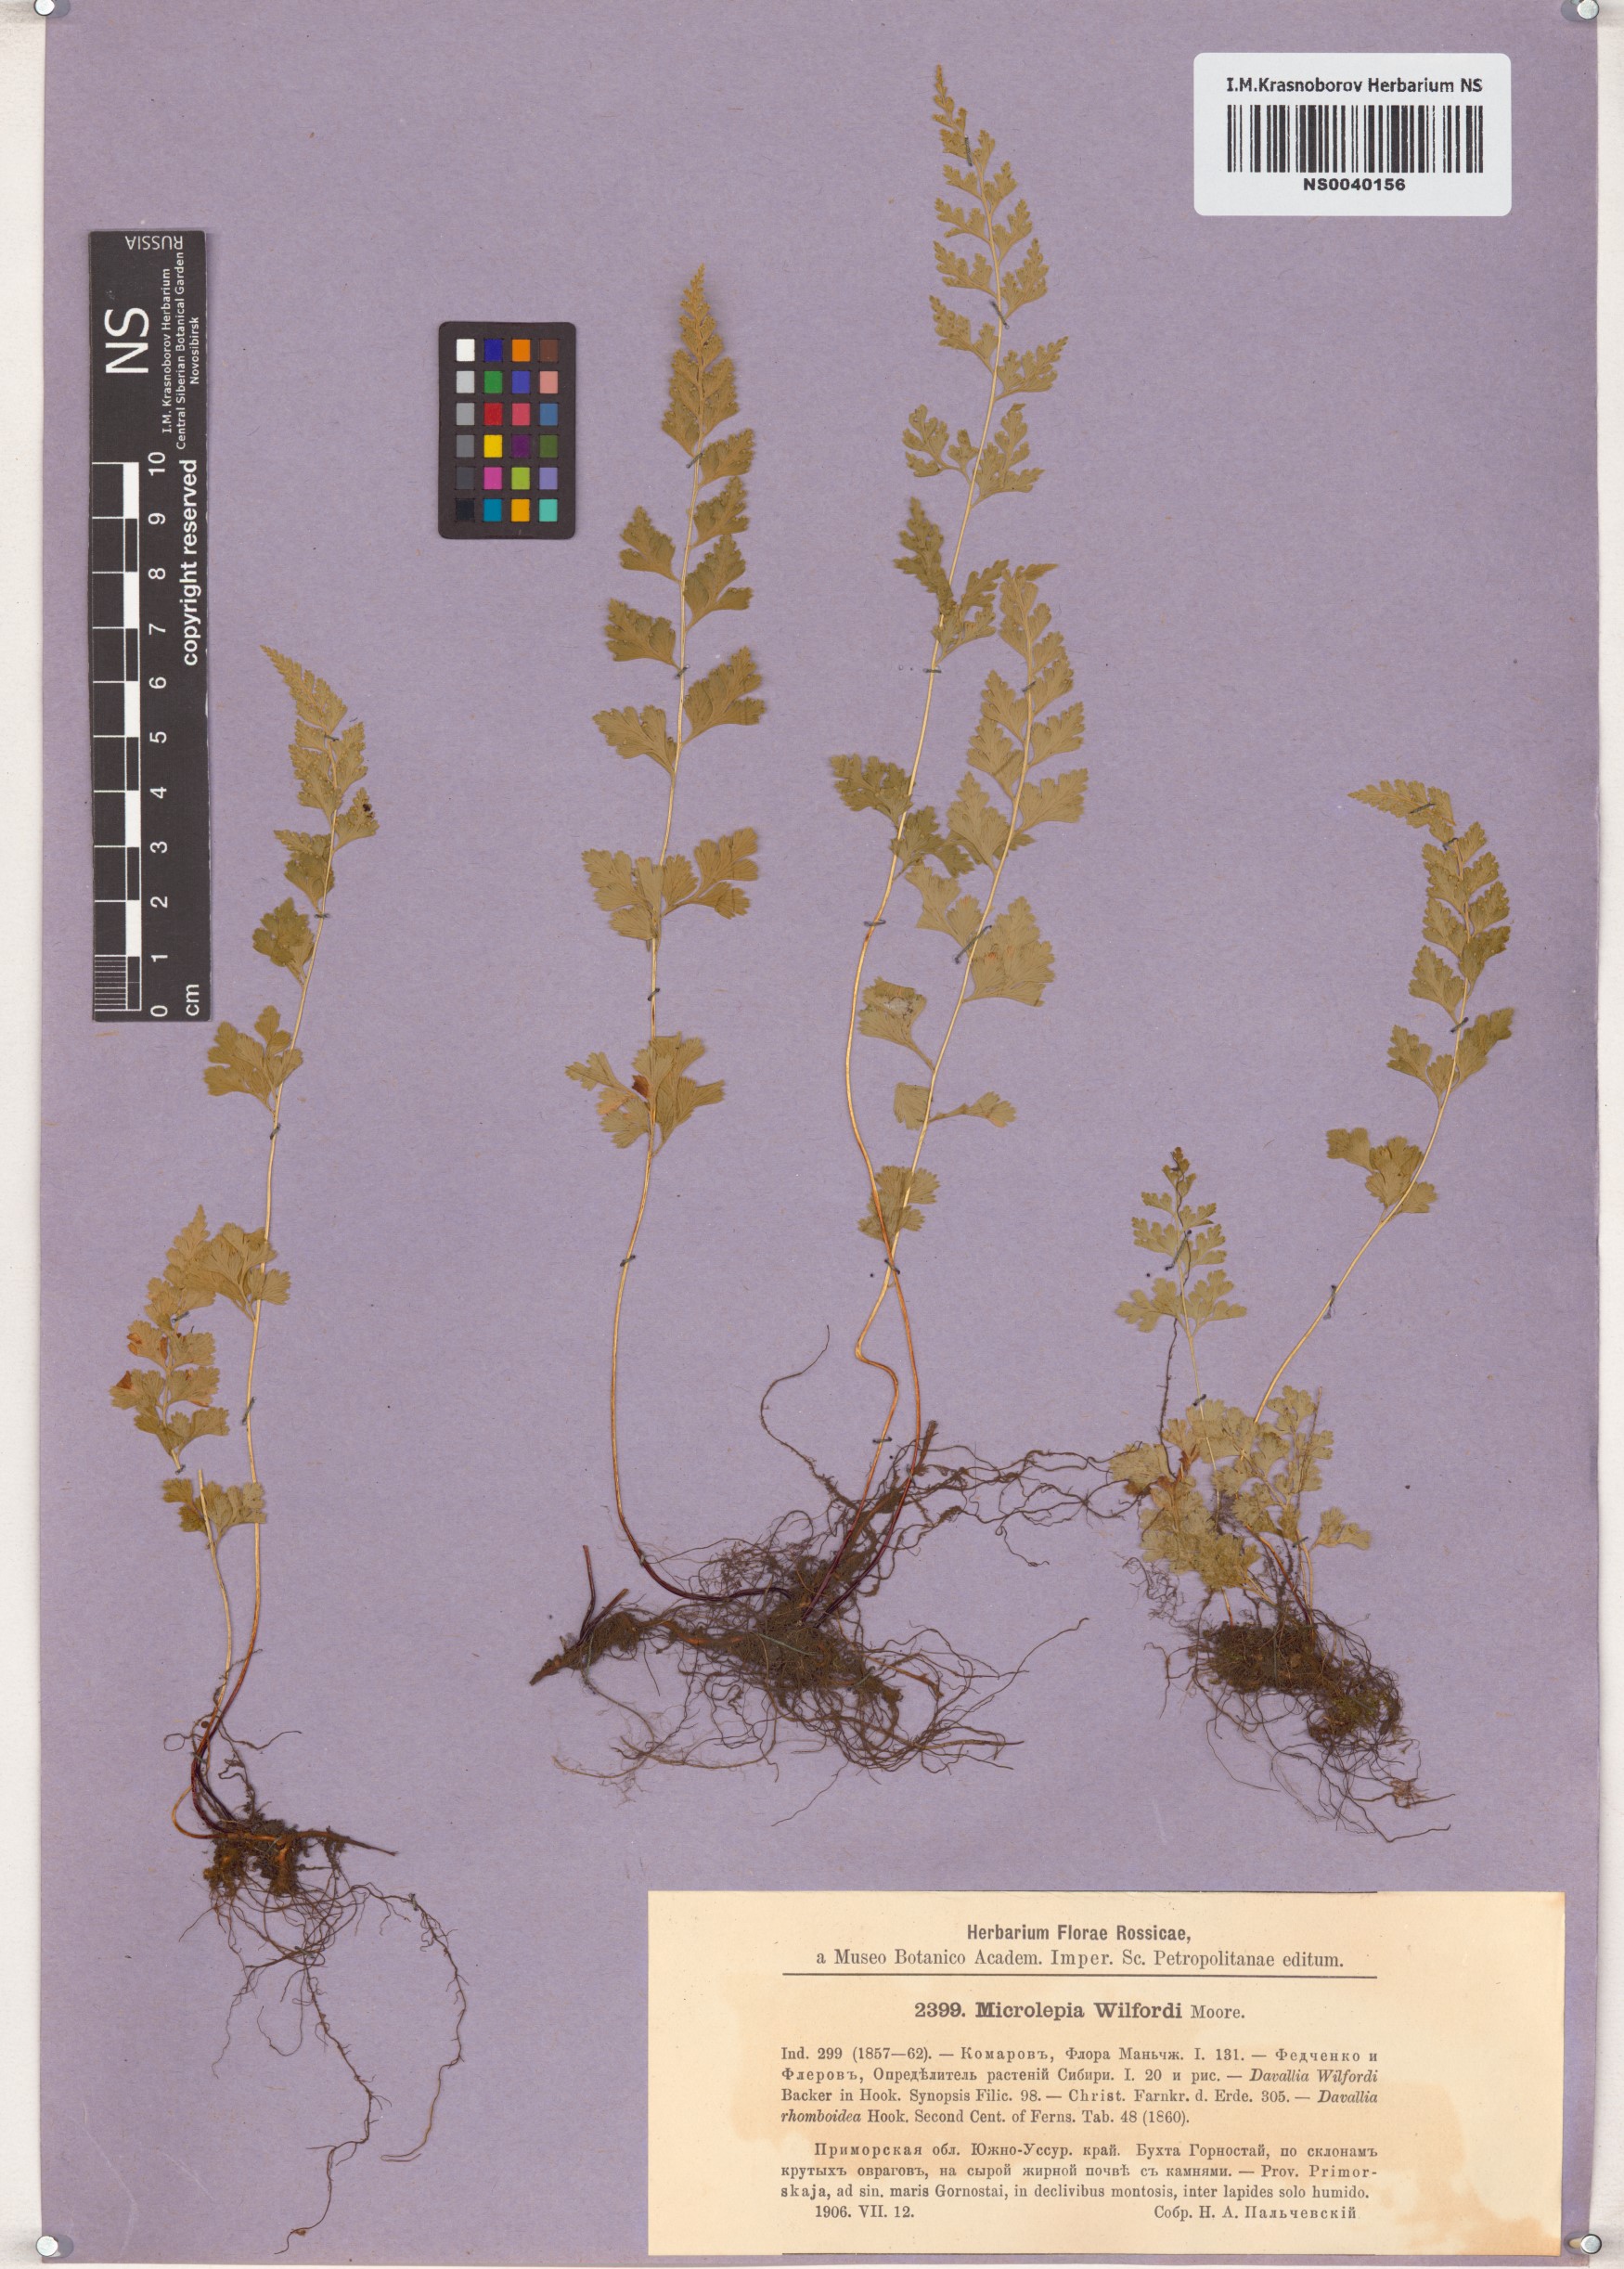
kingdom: Plantae
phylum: Tracheophyta
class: Polypodiopsida
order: Polypodiales
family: Dennstaedtiaceae
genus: Sitobolium
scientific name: Sitobolium wilfordii
